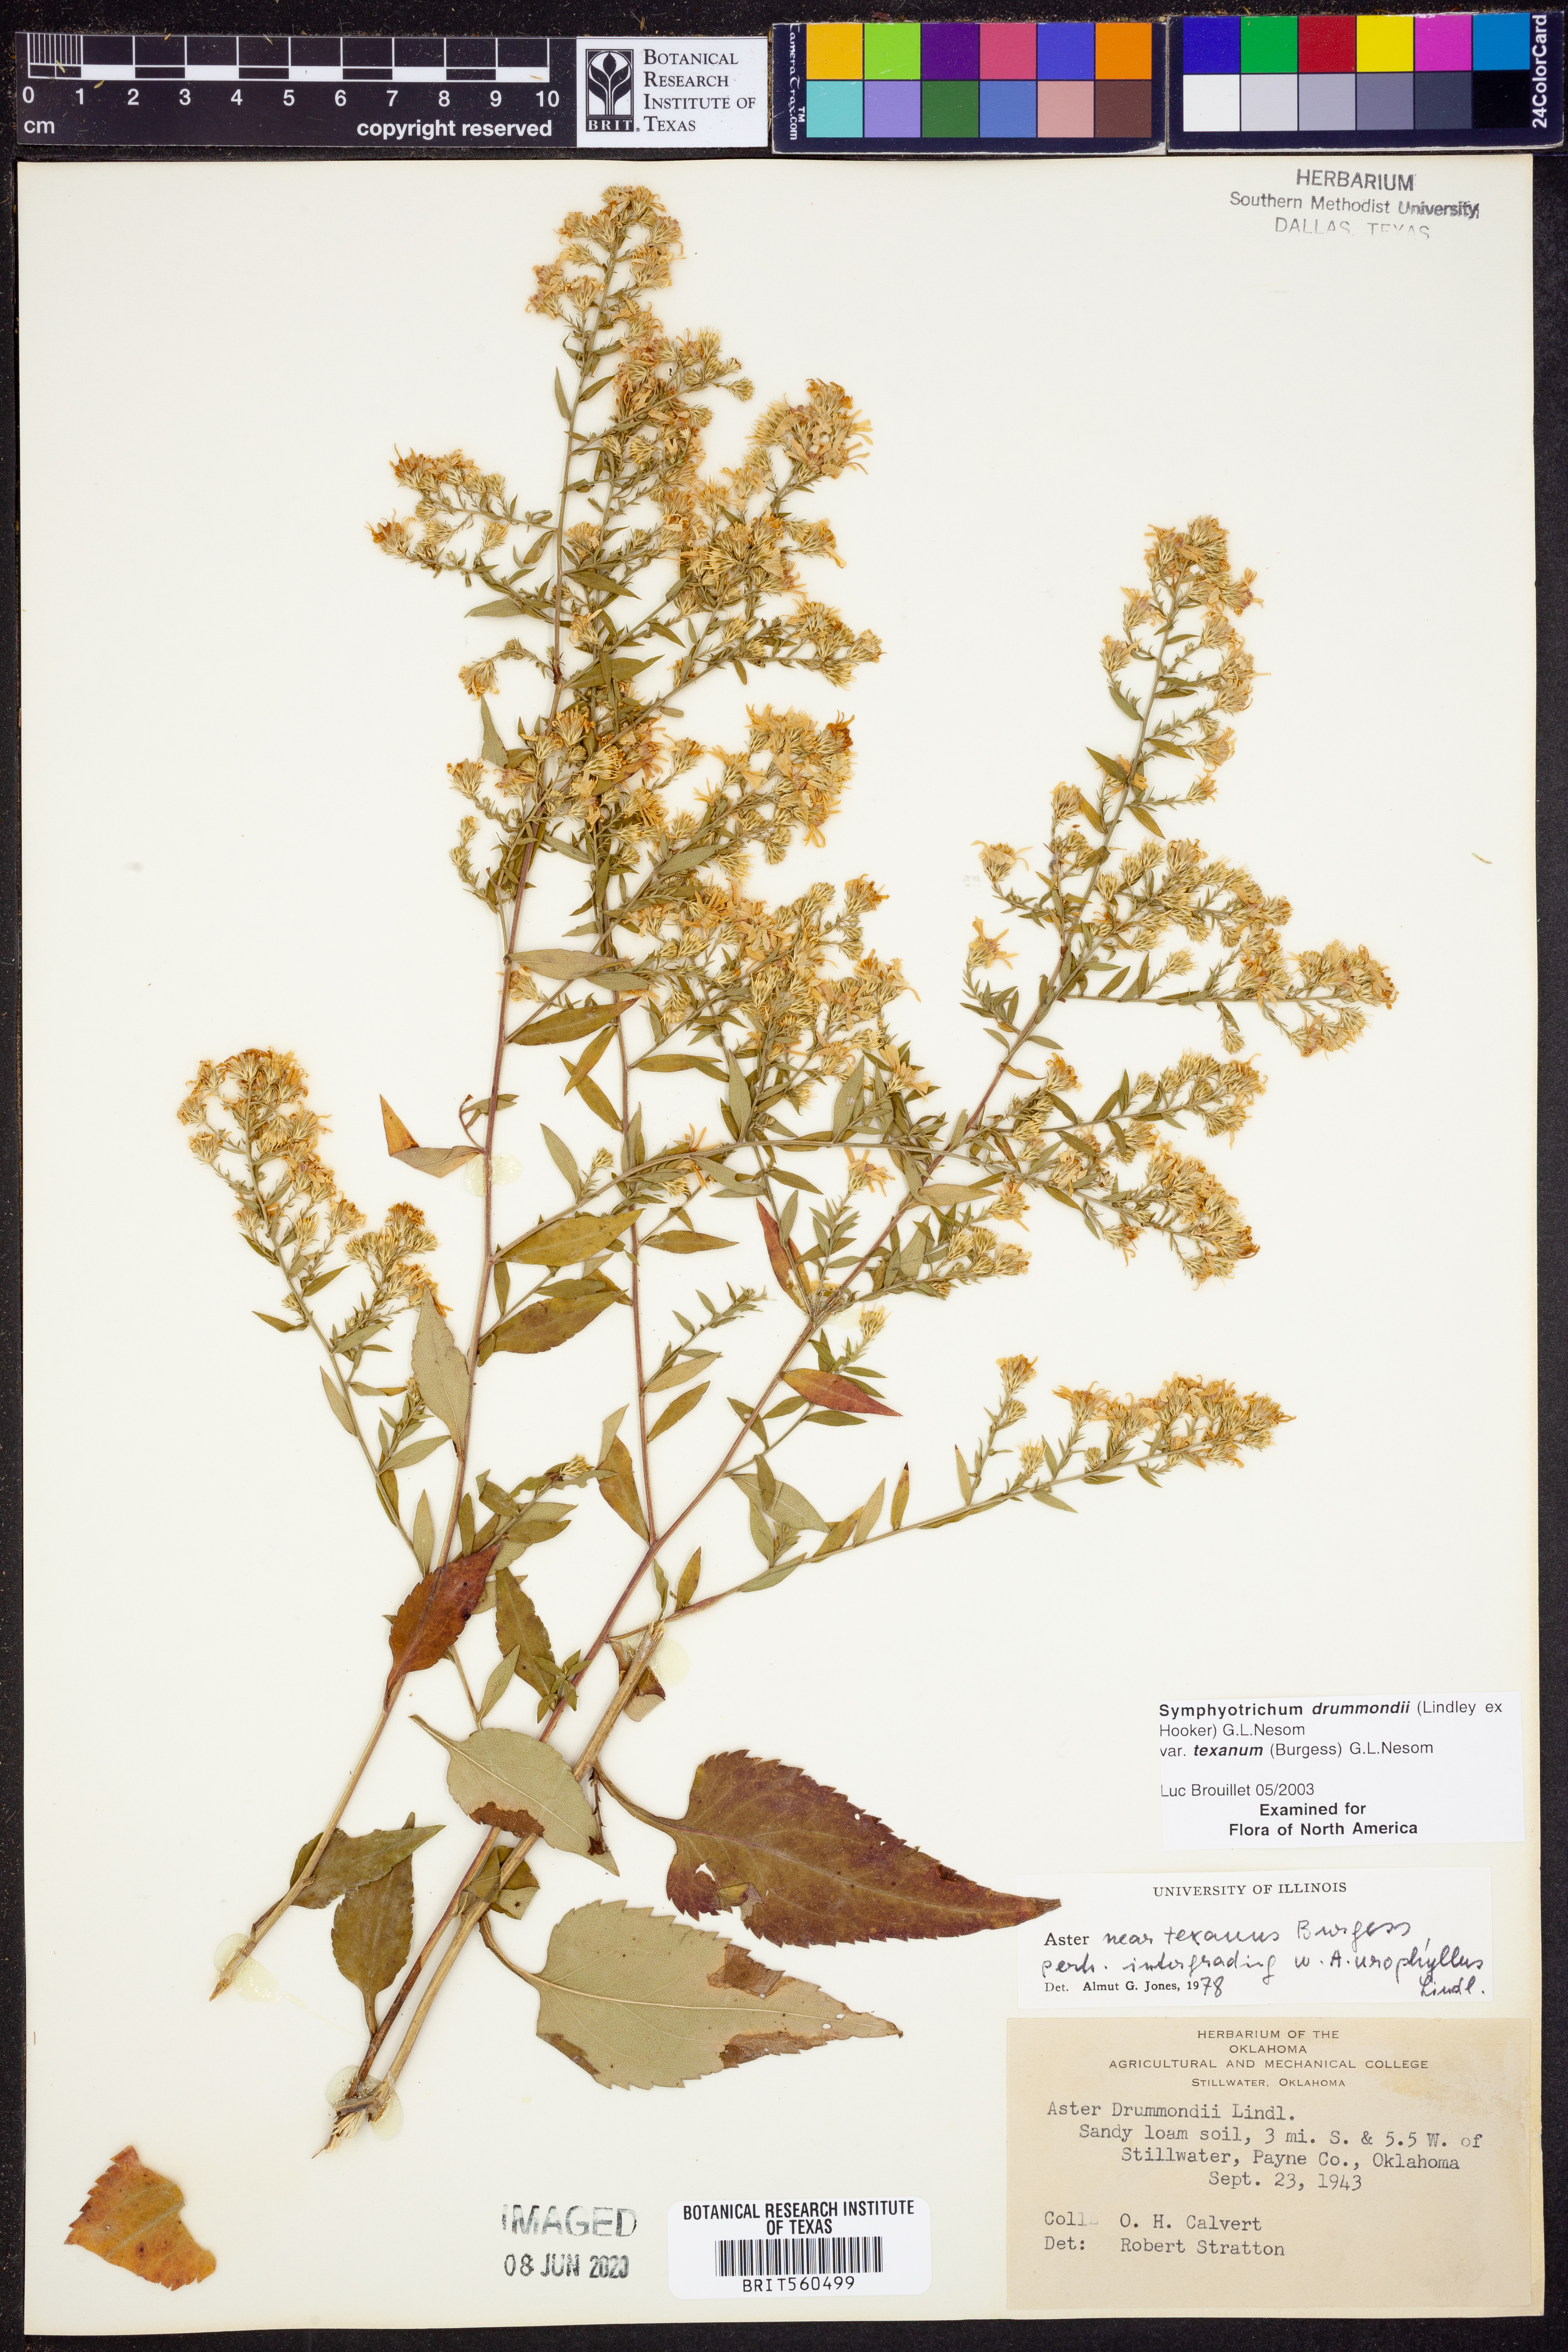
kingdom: Plantae
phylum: Tracheophyta
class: Magnoliopsida
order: Asterales
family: Asteraceae
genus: Symphyotrichum
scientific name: Symphyotrichum drummondii
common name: Drummond's aster
